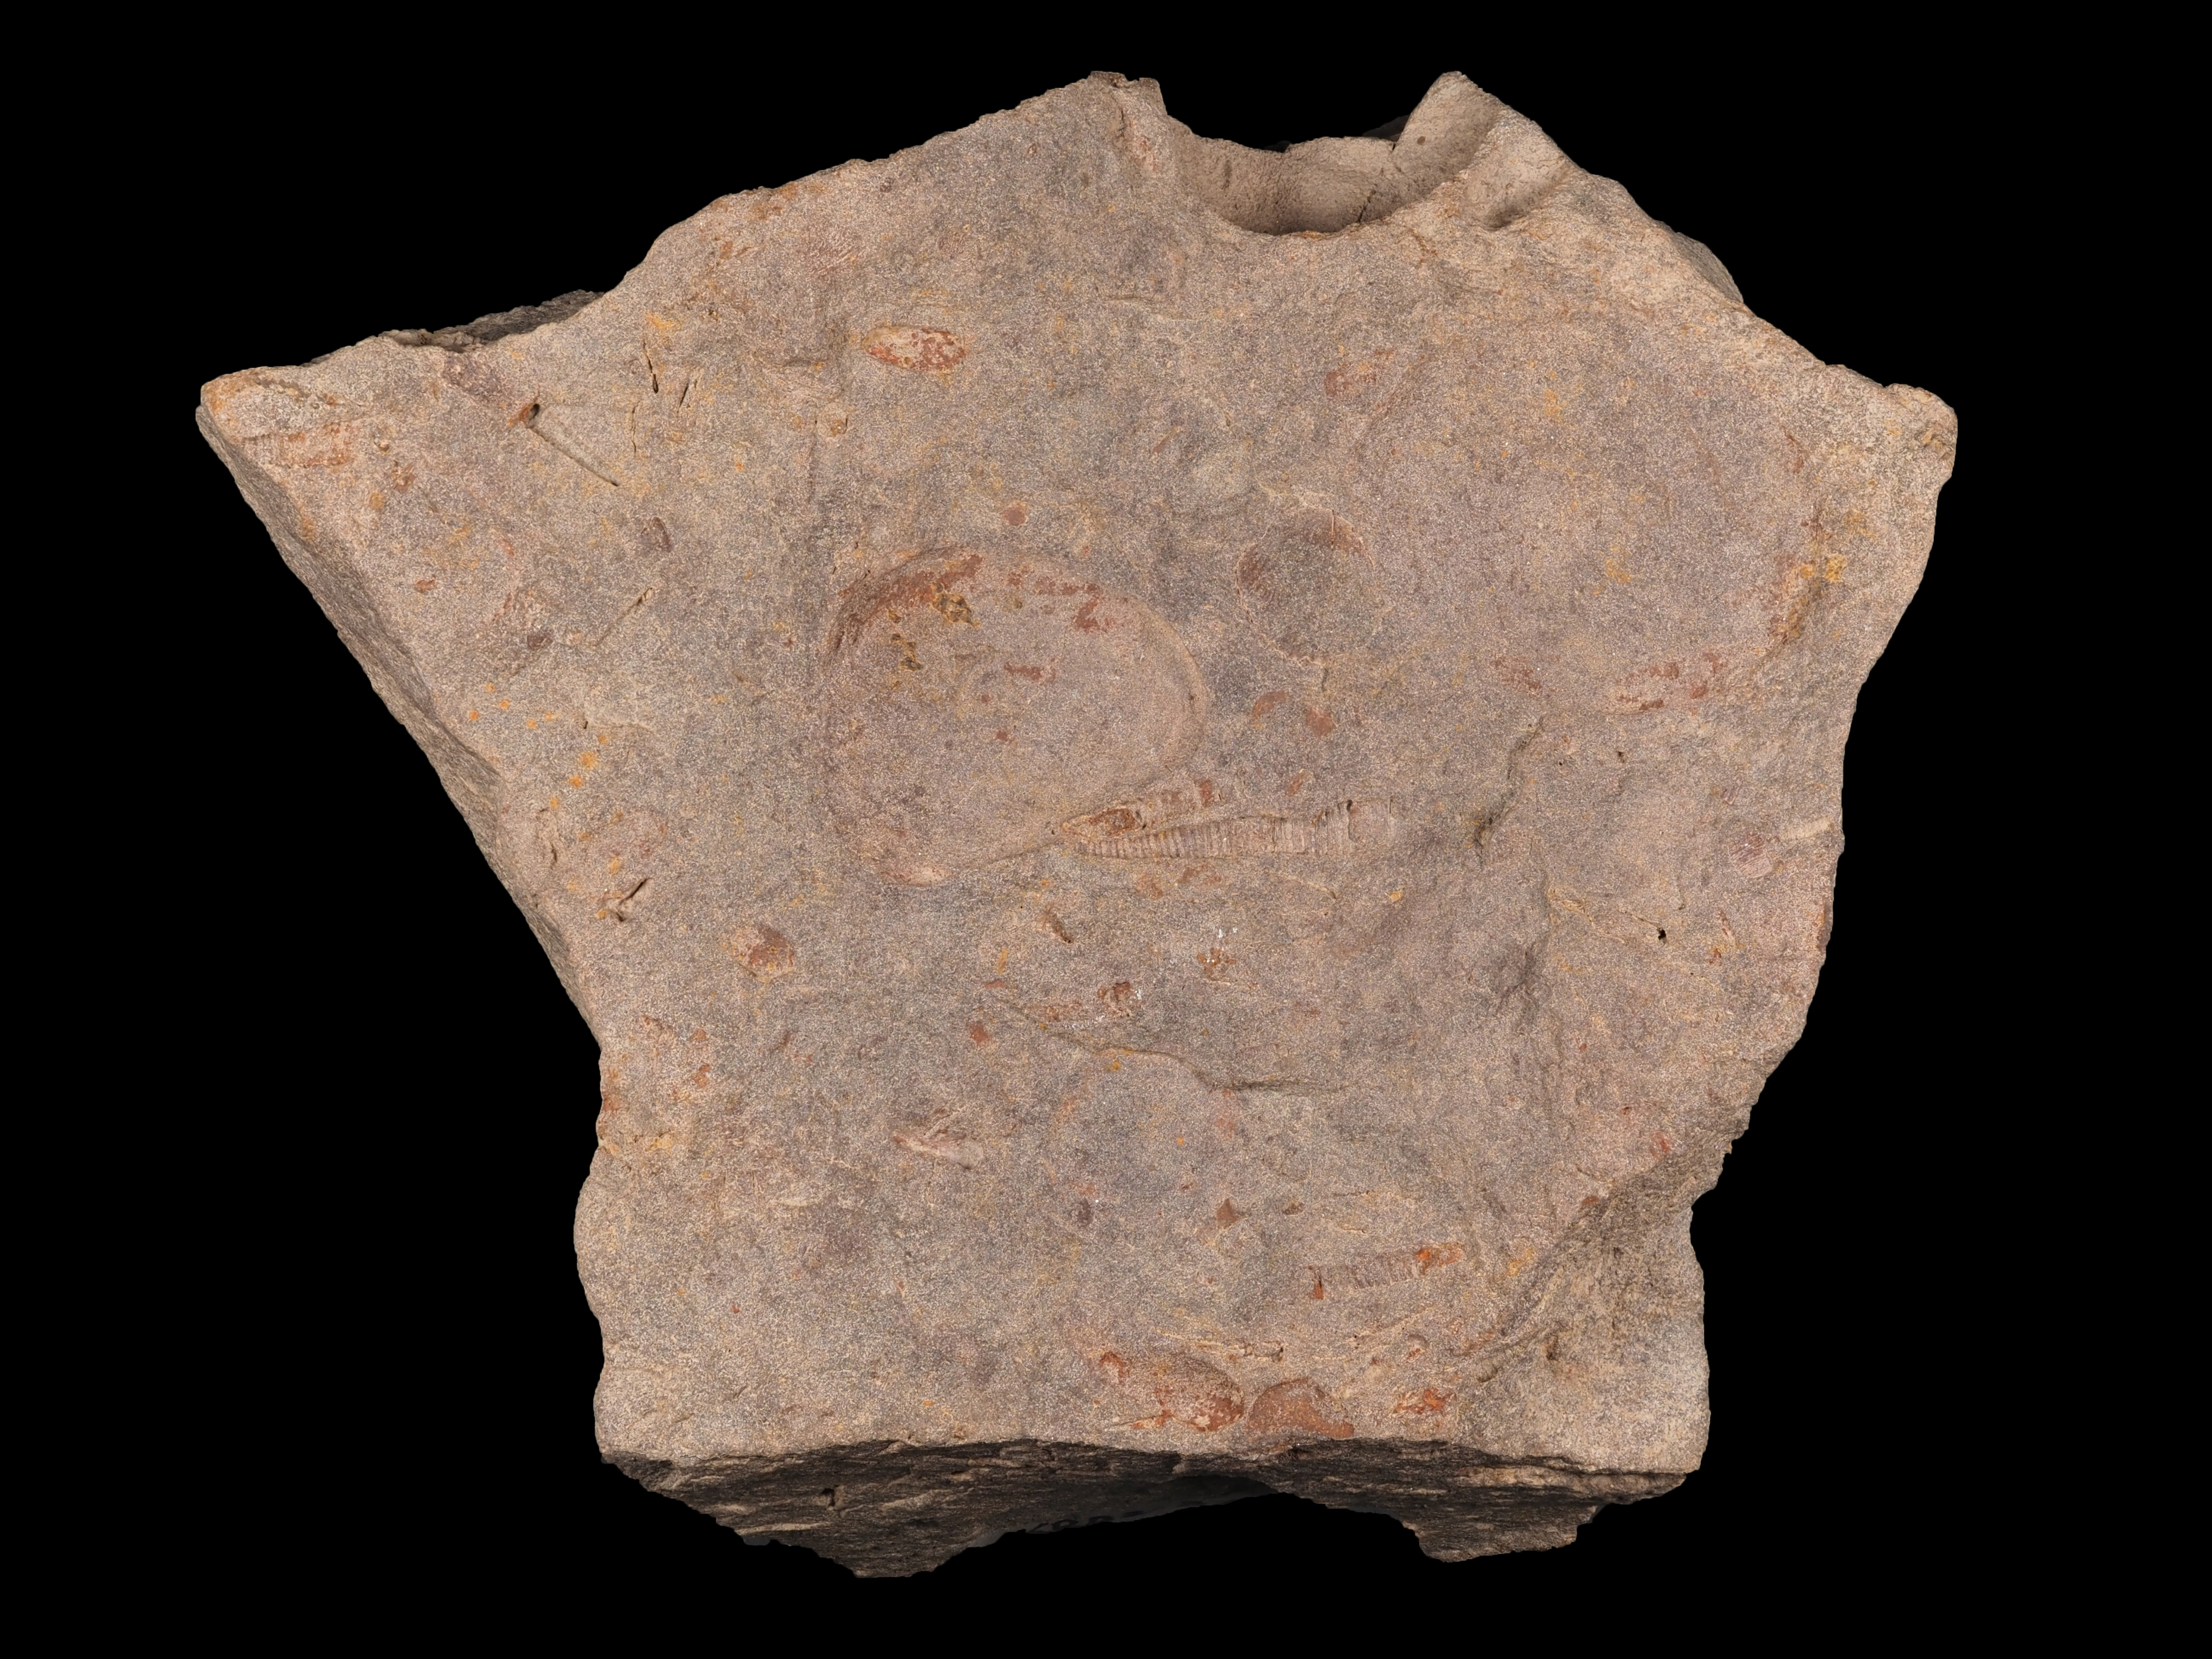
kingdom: Animalia
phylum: Mollusca
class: Cricoconarida
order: Tentaculitida
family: Tentaculitidae
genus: Tentaculites
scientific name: Tentaculites
